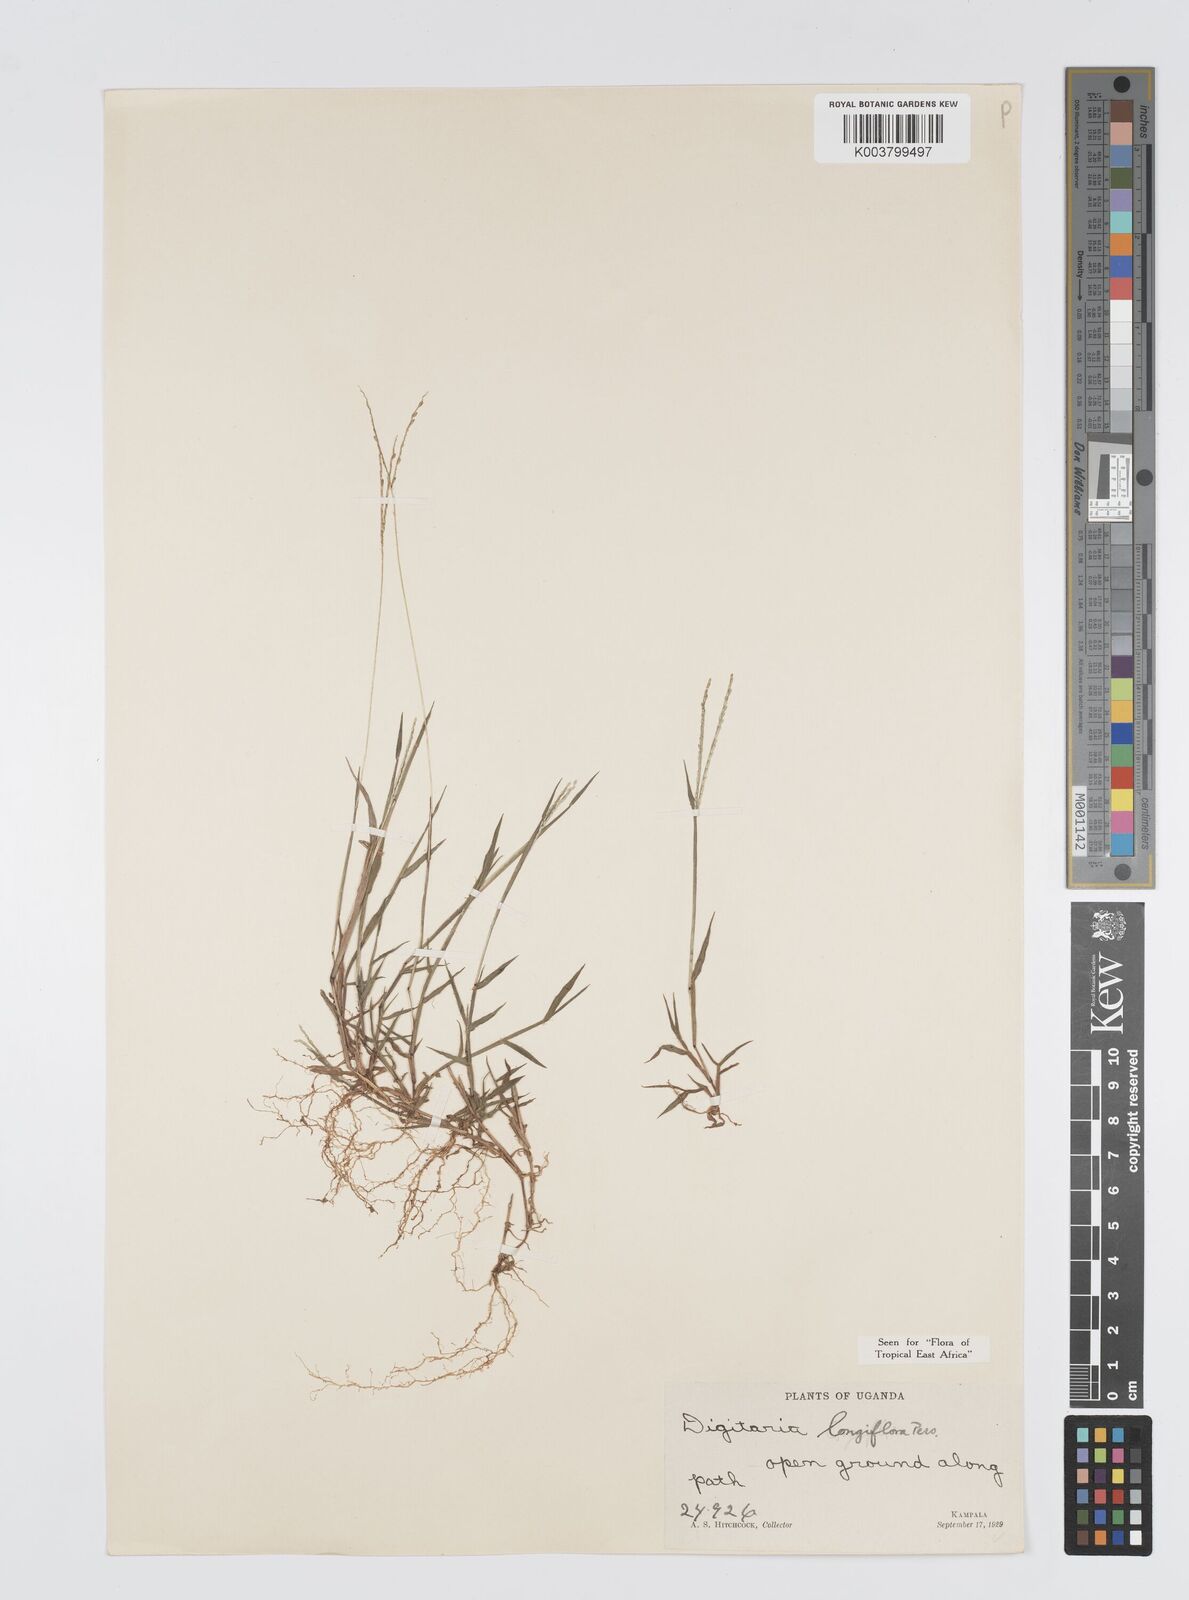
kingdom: Plantae
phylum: Tracheophyta
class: Liliopsida
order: Poales
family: Poaceae
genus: Digitaria
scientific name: Digitaria longiflora
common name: Wire crabgrass
